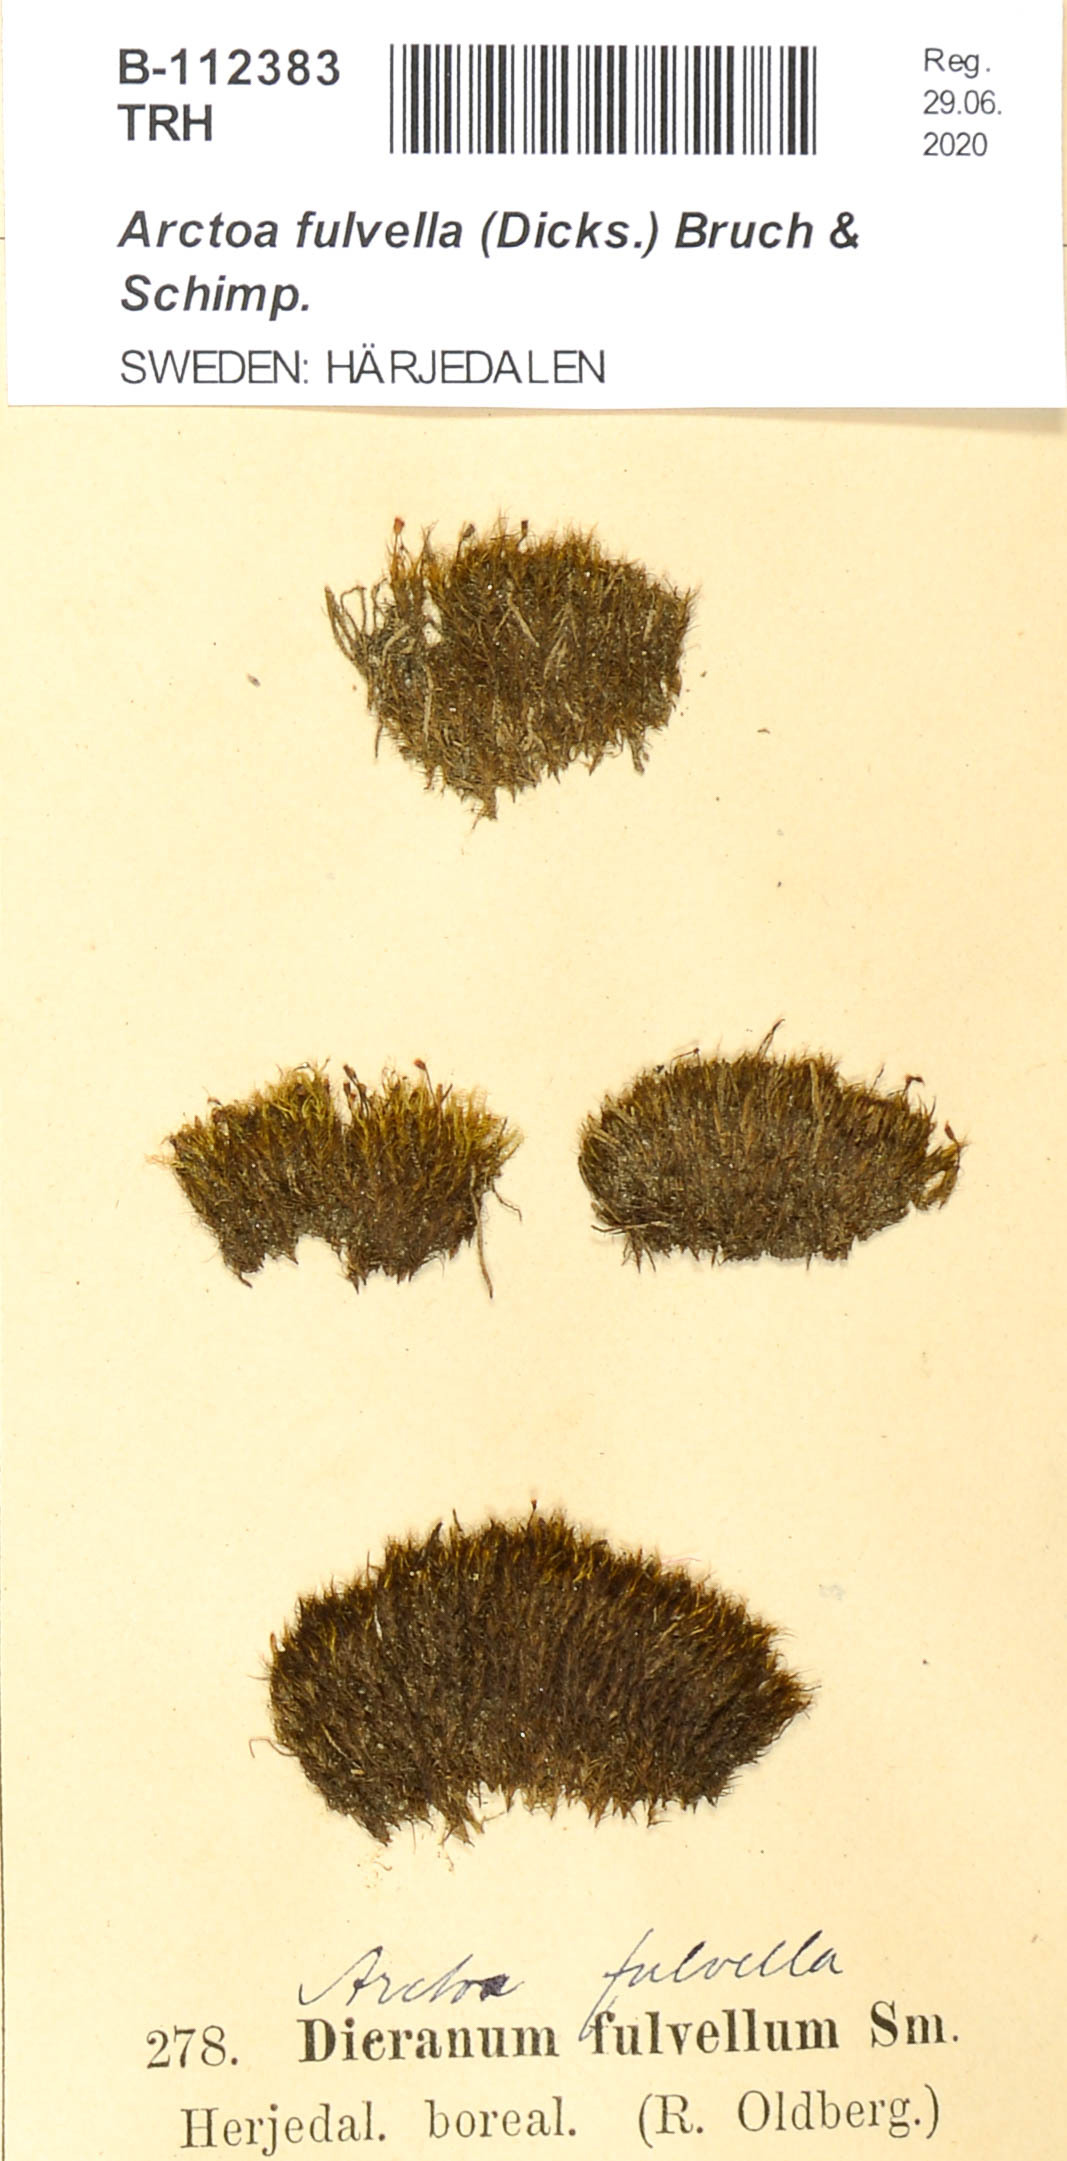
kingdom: Plantae
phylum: Bryophyta
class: Bryopsida
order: Dicranales
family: Rhabdoweisiaceae
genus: Arctoa
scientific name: Arctoa fulvella
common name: Tawny fork moss
